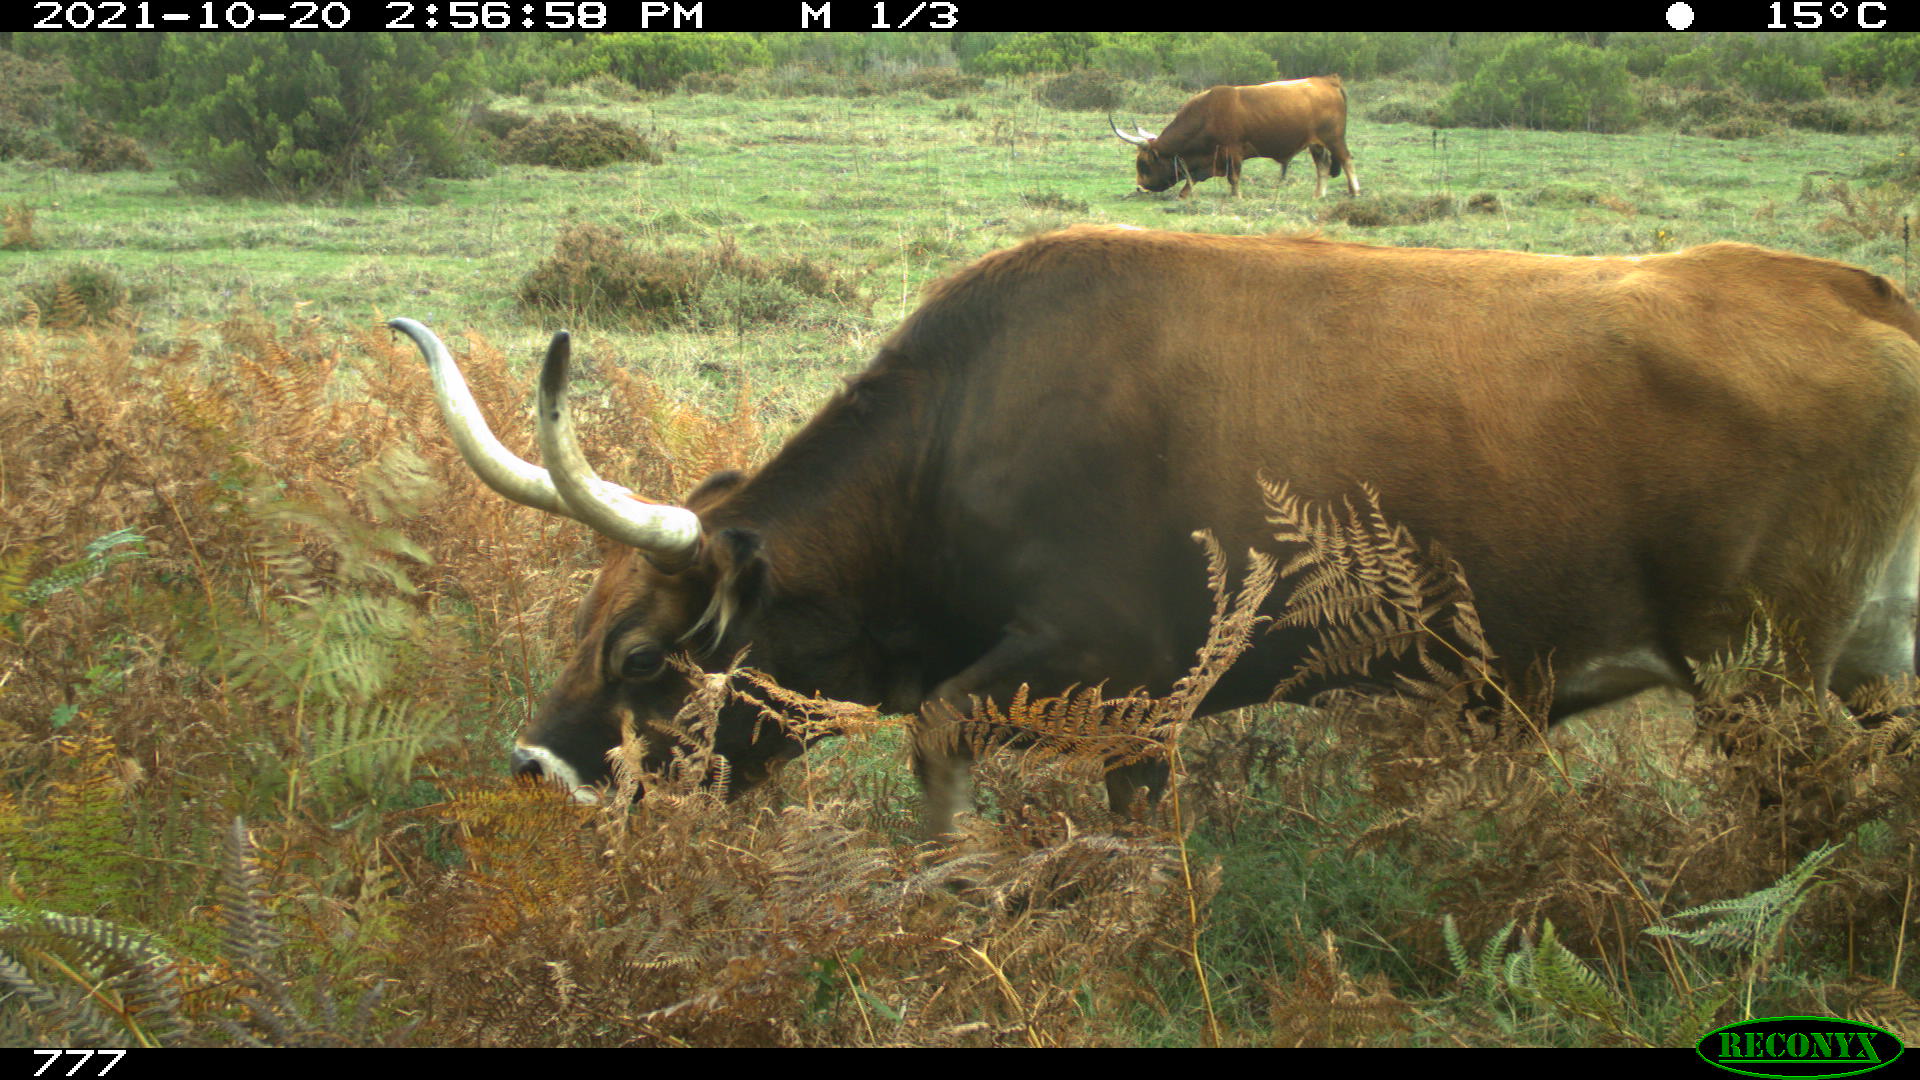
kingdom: Animalia
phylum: Chordata
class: Mammalia
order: Artiodactyla
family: Bovidae
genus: Bos
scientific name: Bos taurus
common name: Domesticated cattle
